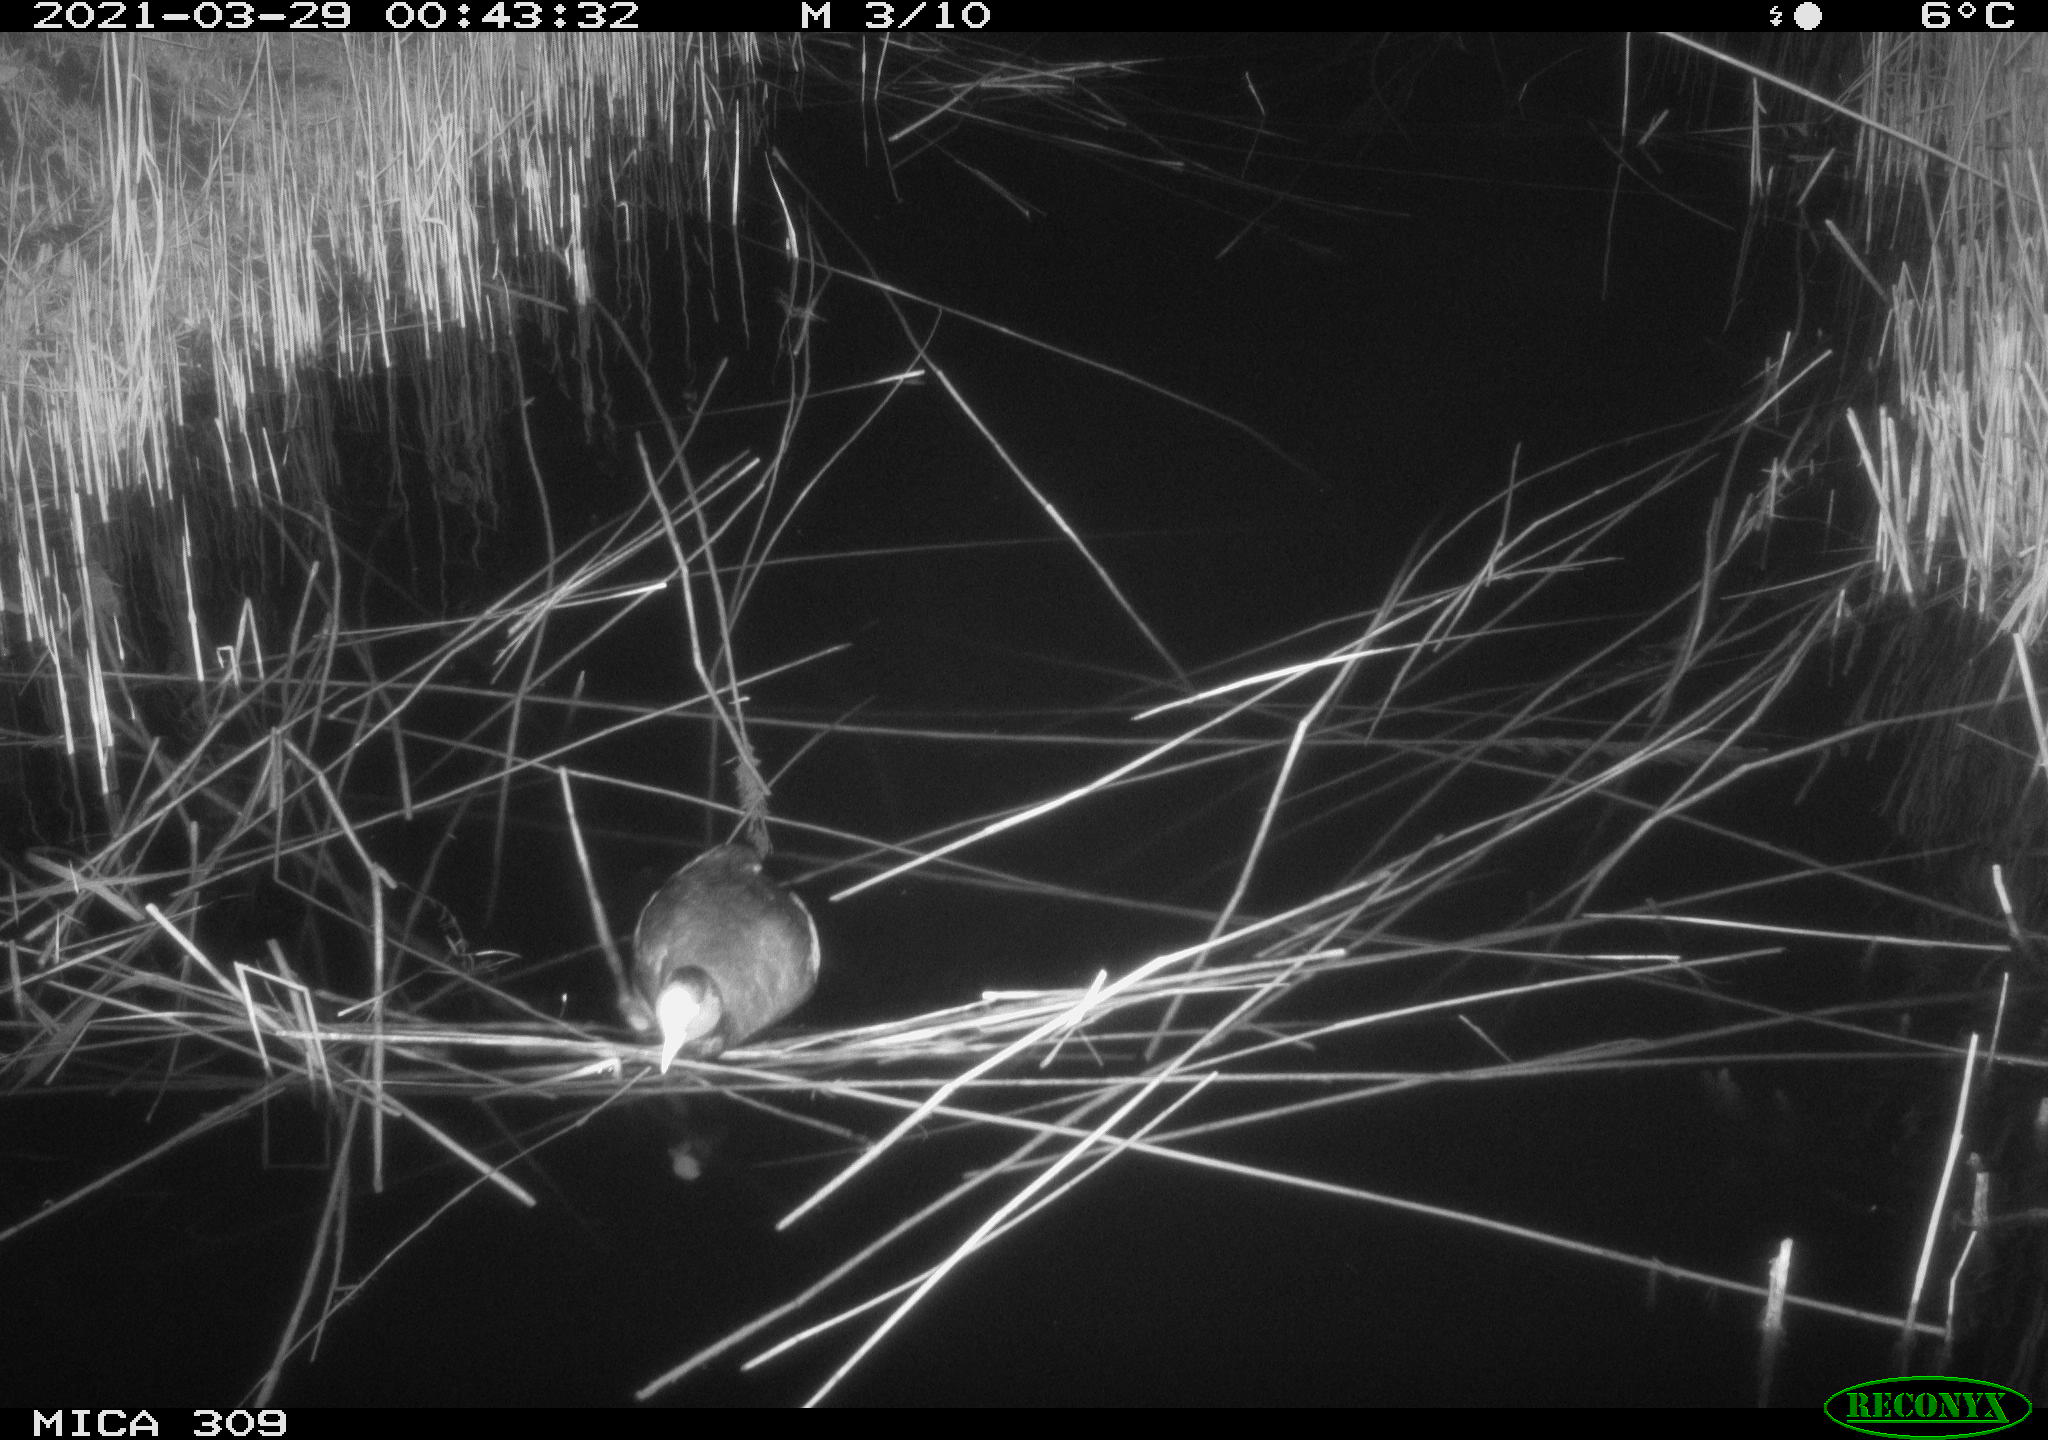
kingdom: Animalia
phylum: Chordata
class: Aves
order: Gruiformes
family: Rallidae
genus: Fulica
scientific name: Fulica atra
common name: Eurasian coot
